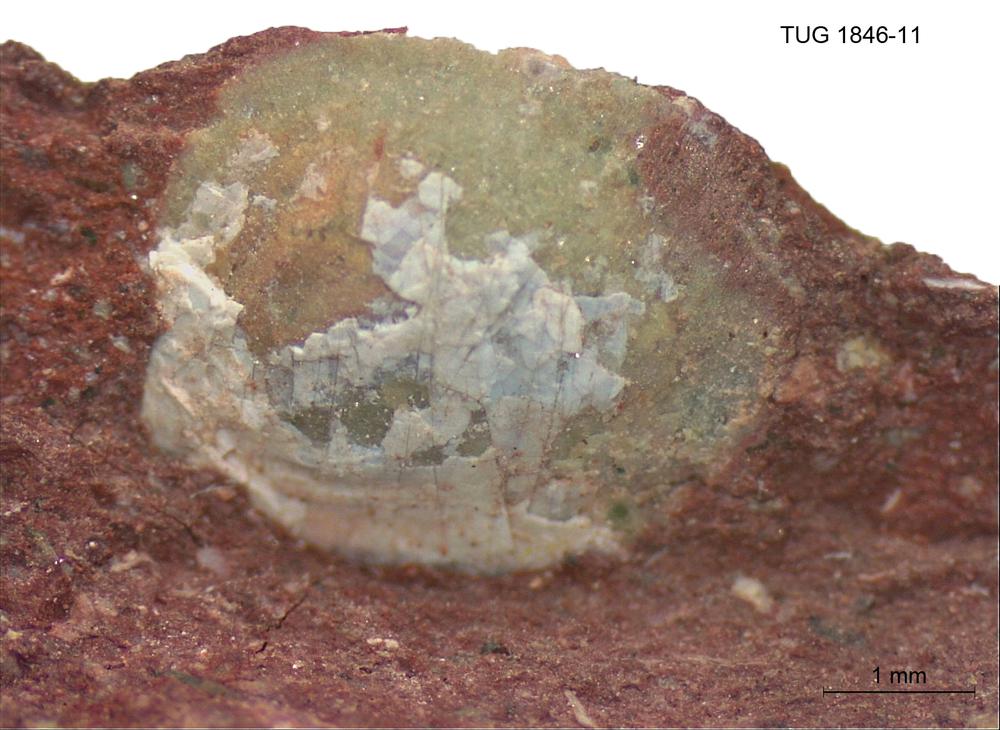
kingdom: Animalia
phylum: Brachiopoda
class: Lingulata
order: Lingulida
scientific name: Lingulida
